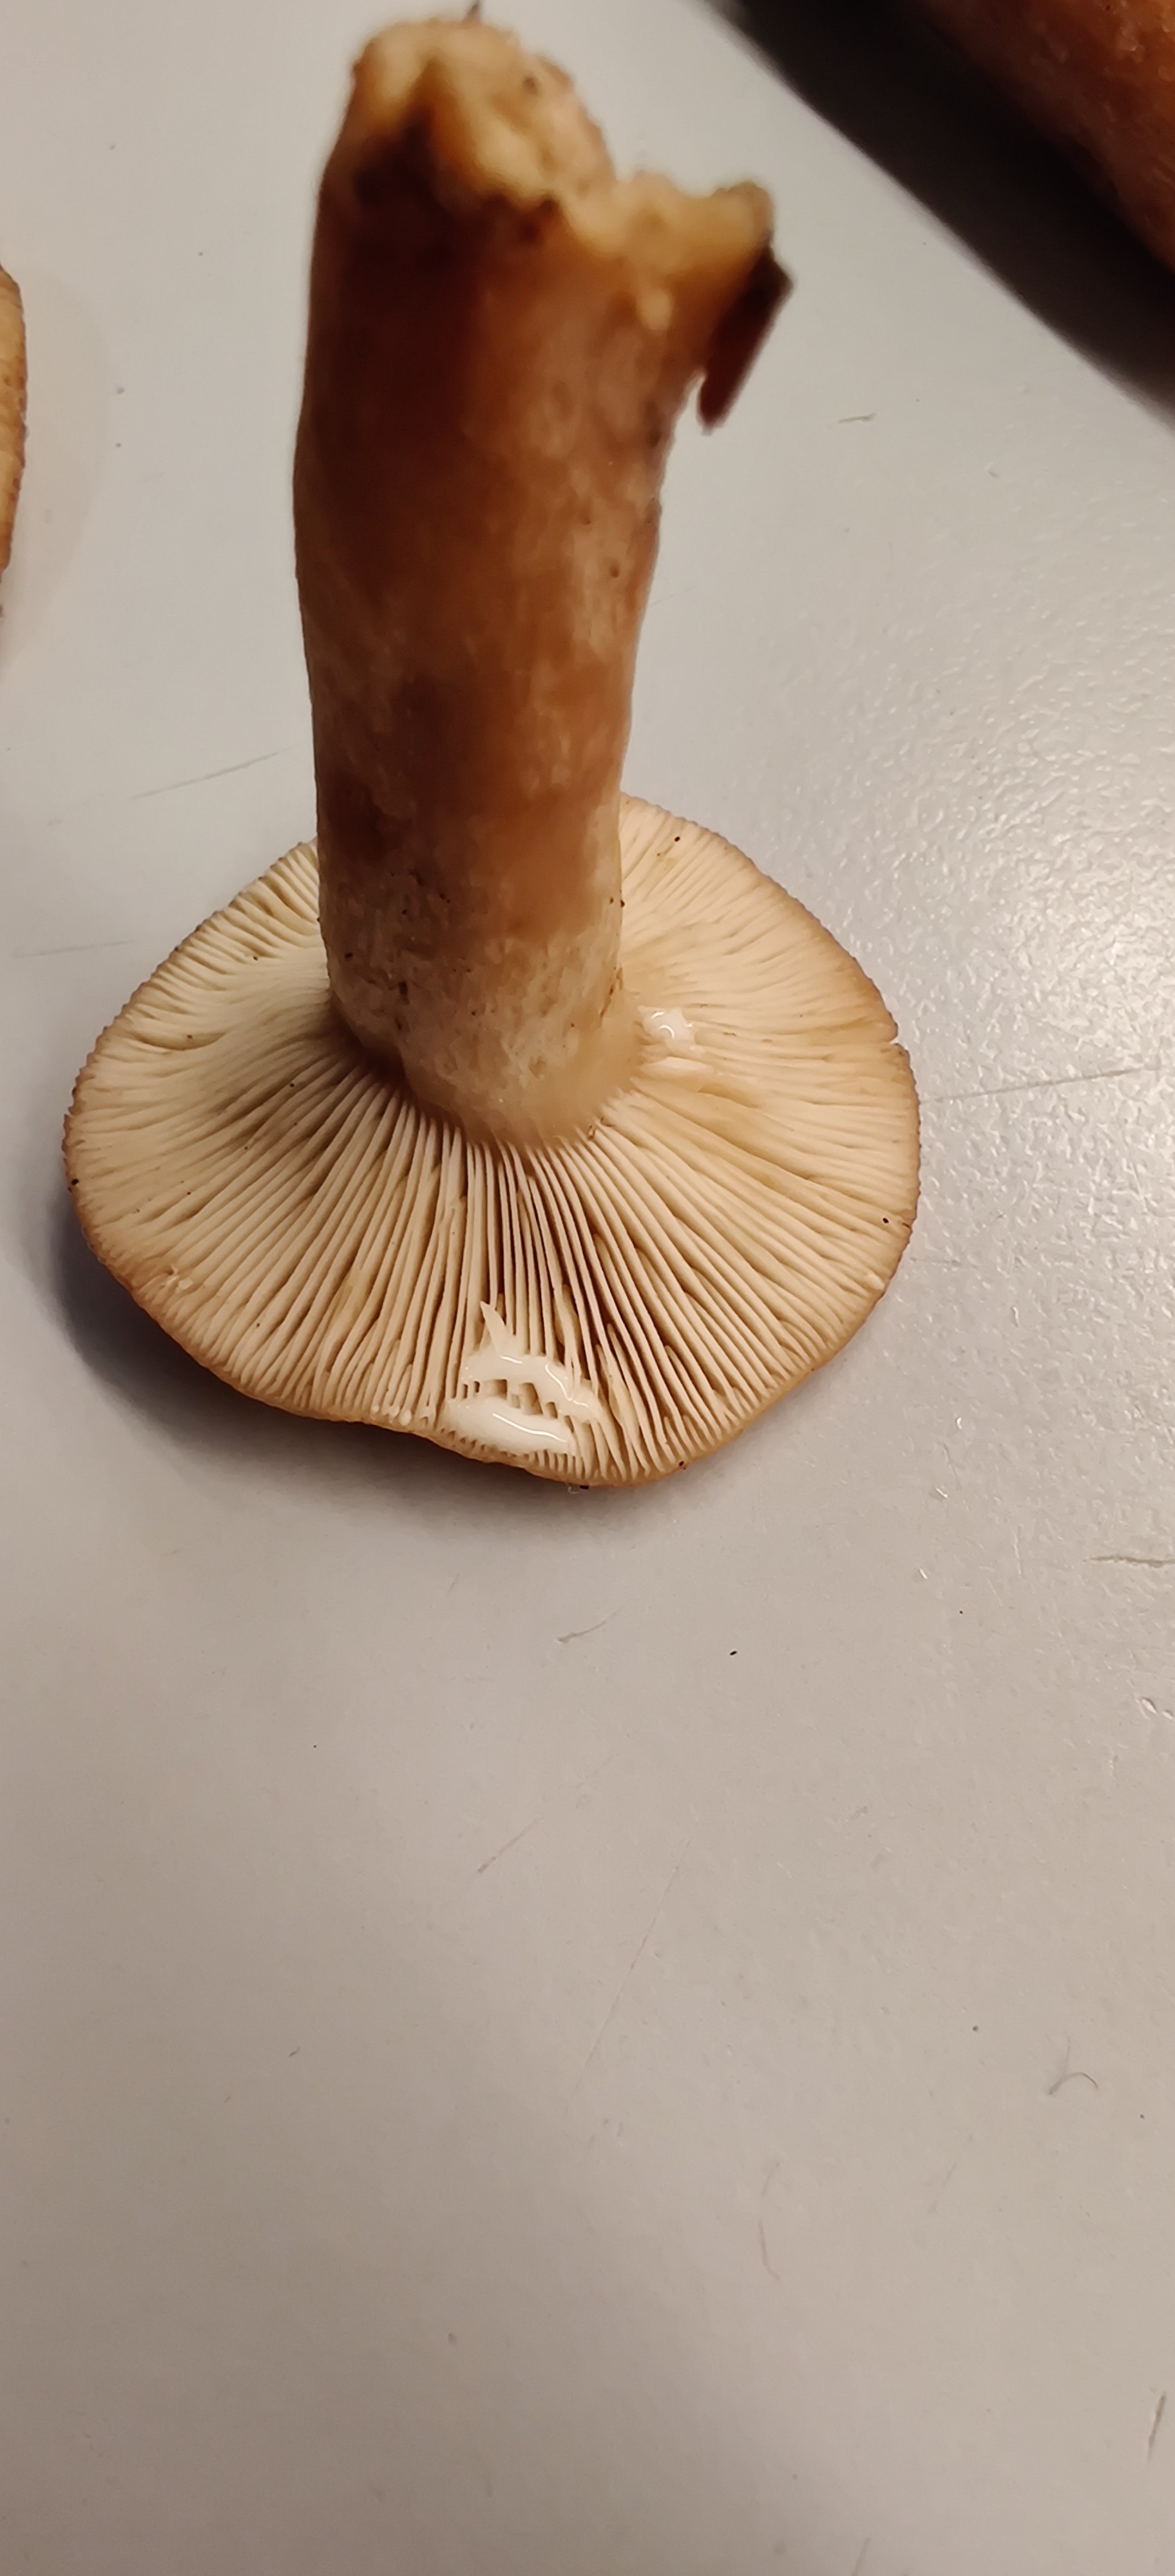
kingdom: Fungi
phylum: Basidiomycota
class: Agaricomycetes
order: Russulales
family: Russulaceae
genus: Lactarius
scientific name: Lactarius
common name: mælkehat
